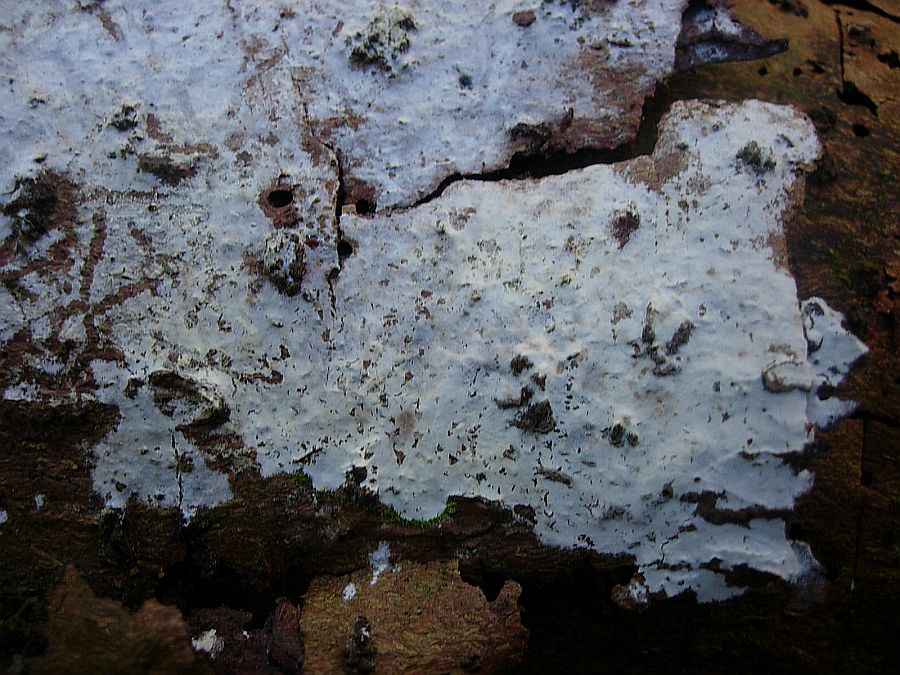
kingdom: Fungi
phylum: Basidiomycota
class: Agaricomycetes
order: Atheliales
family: Atheliaceae
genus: Athelia
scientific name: Athelia epiphylla
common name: almindelig barkhinde
